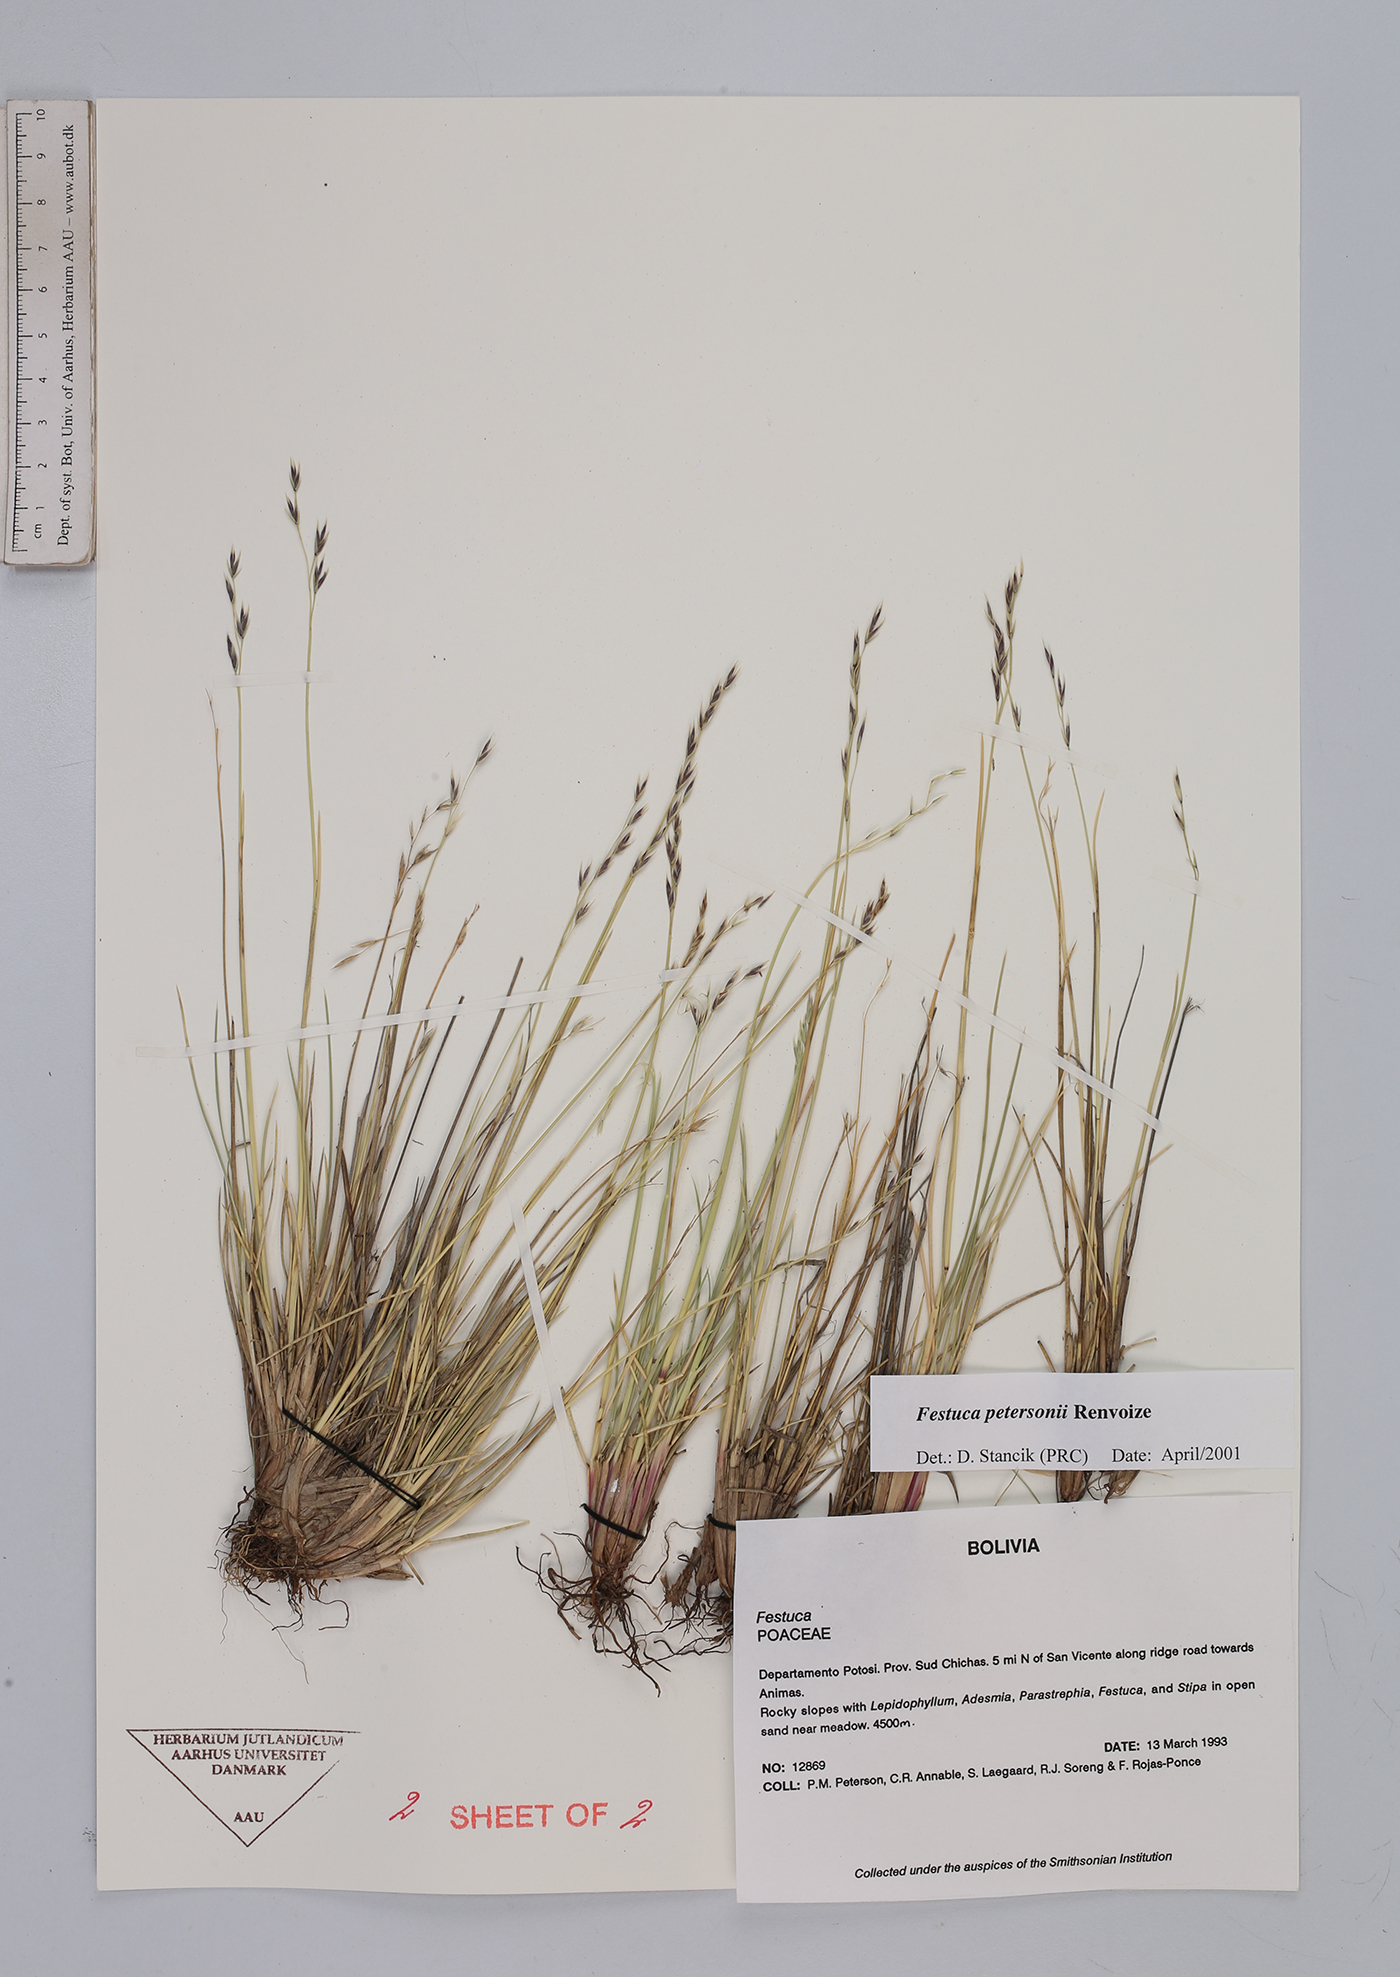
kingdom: Plantae
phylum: Tracheophyta
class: Liliopsida
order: Poales
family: Poaceae
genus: Festuca
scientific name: Festuca rigescens
